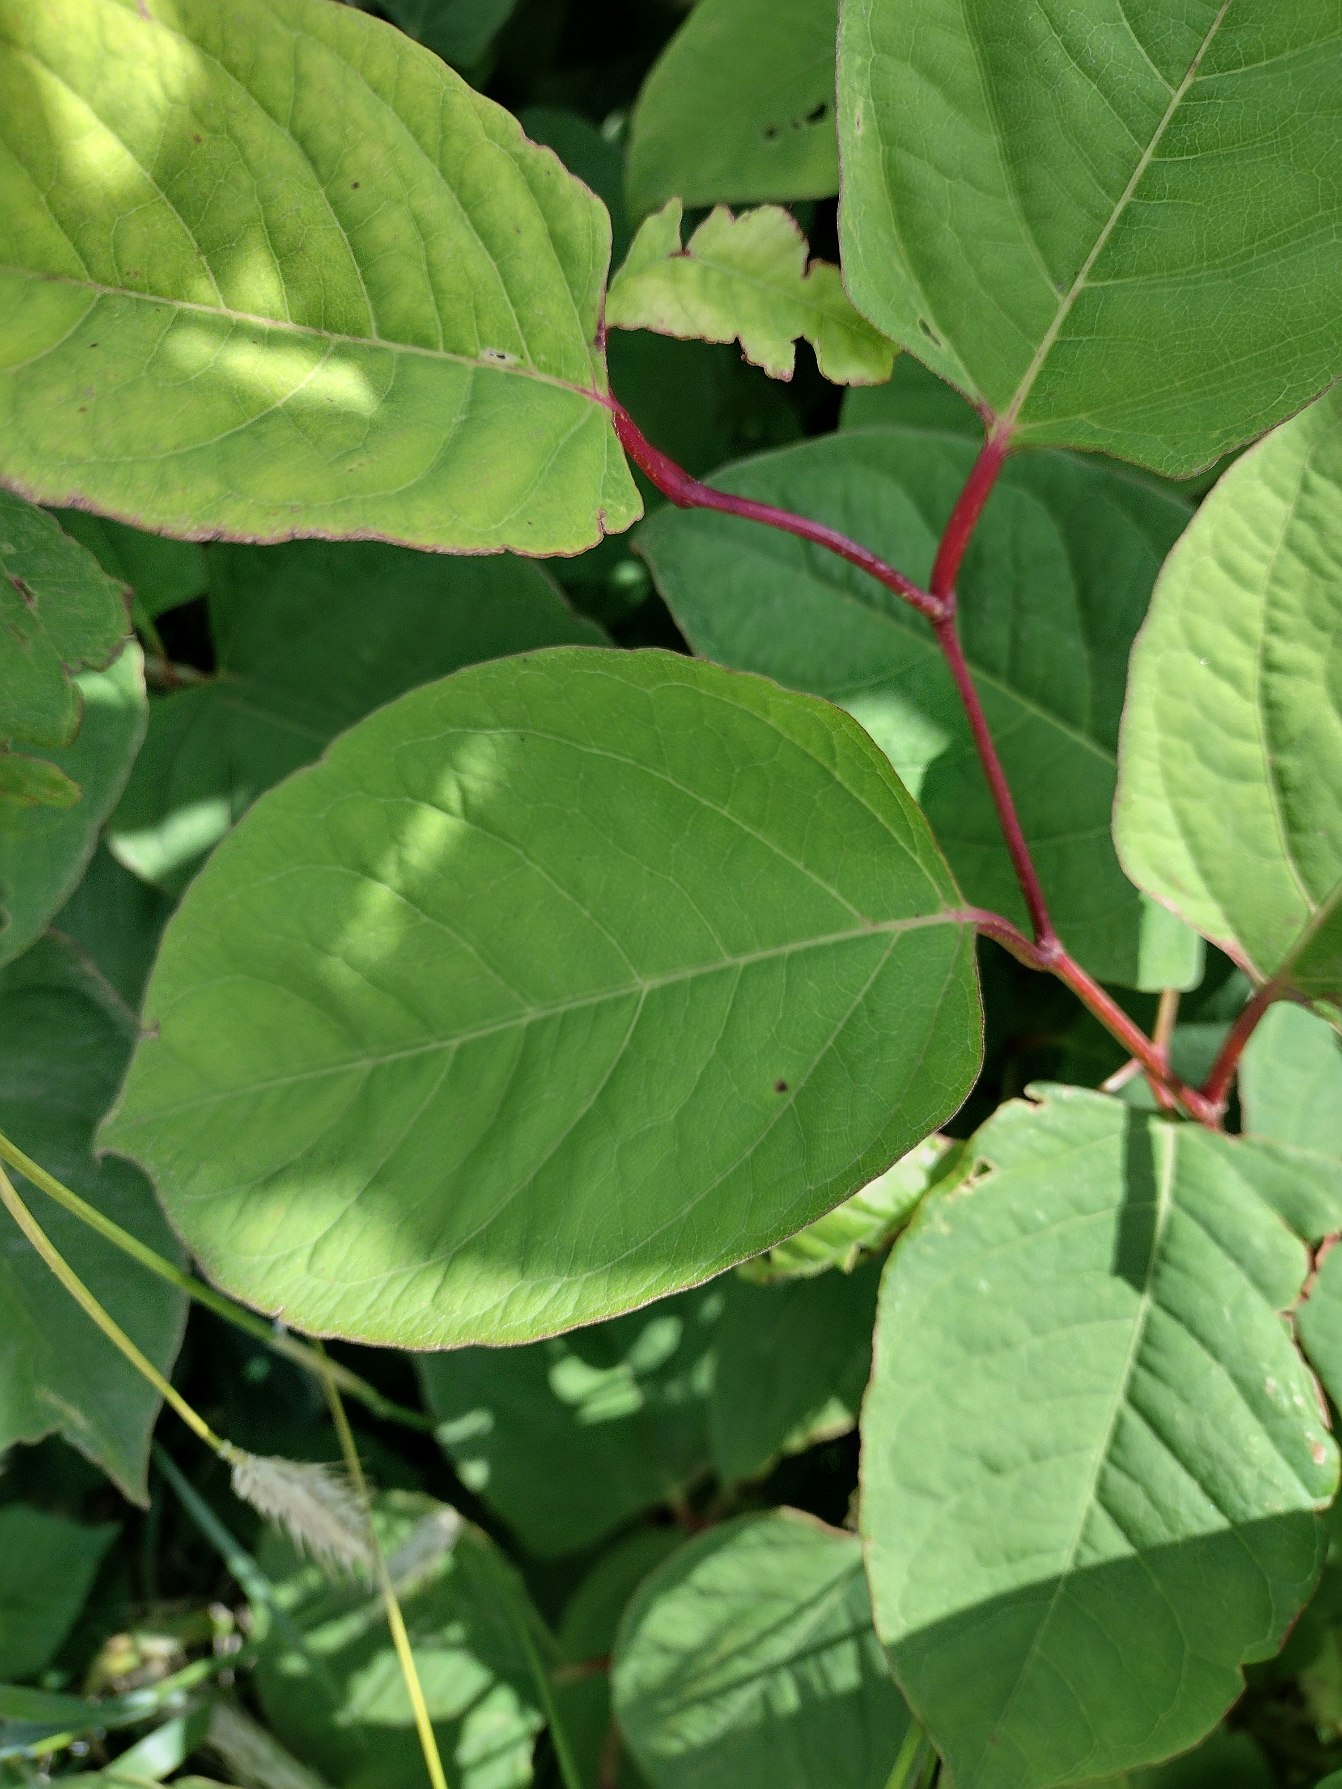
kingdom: Plantae
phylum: Tracheophyta
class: Magnoliopsida
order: Caryophyllales
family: Polygonaceae
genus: Reynoutria
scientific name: Reynoutria japonica
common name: Japan-pileurt
